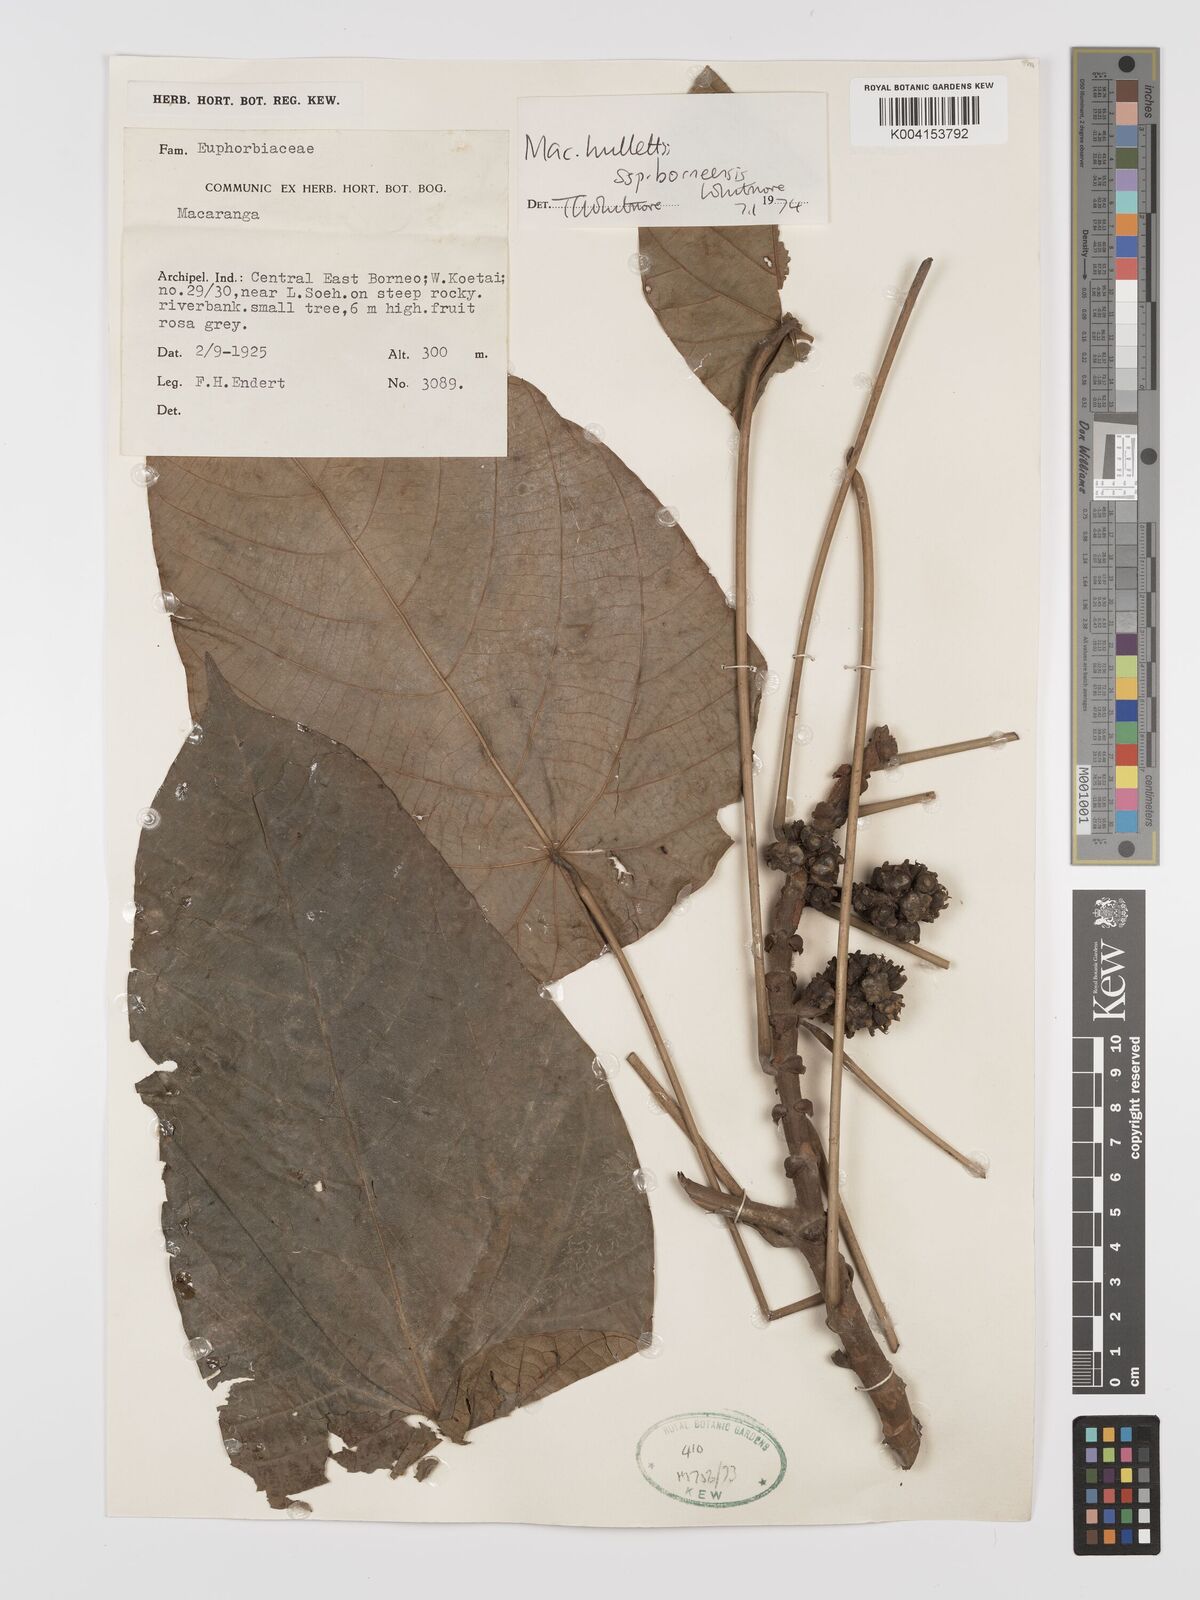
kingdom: Plantae
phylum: Tracheophyta
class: Magnoliopsida
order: Malpighiales
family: Euphorbiaceae
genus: Macaranga
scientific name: Macaranga hullettii
